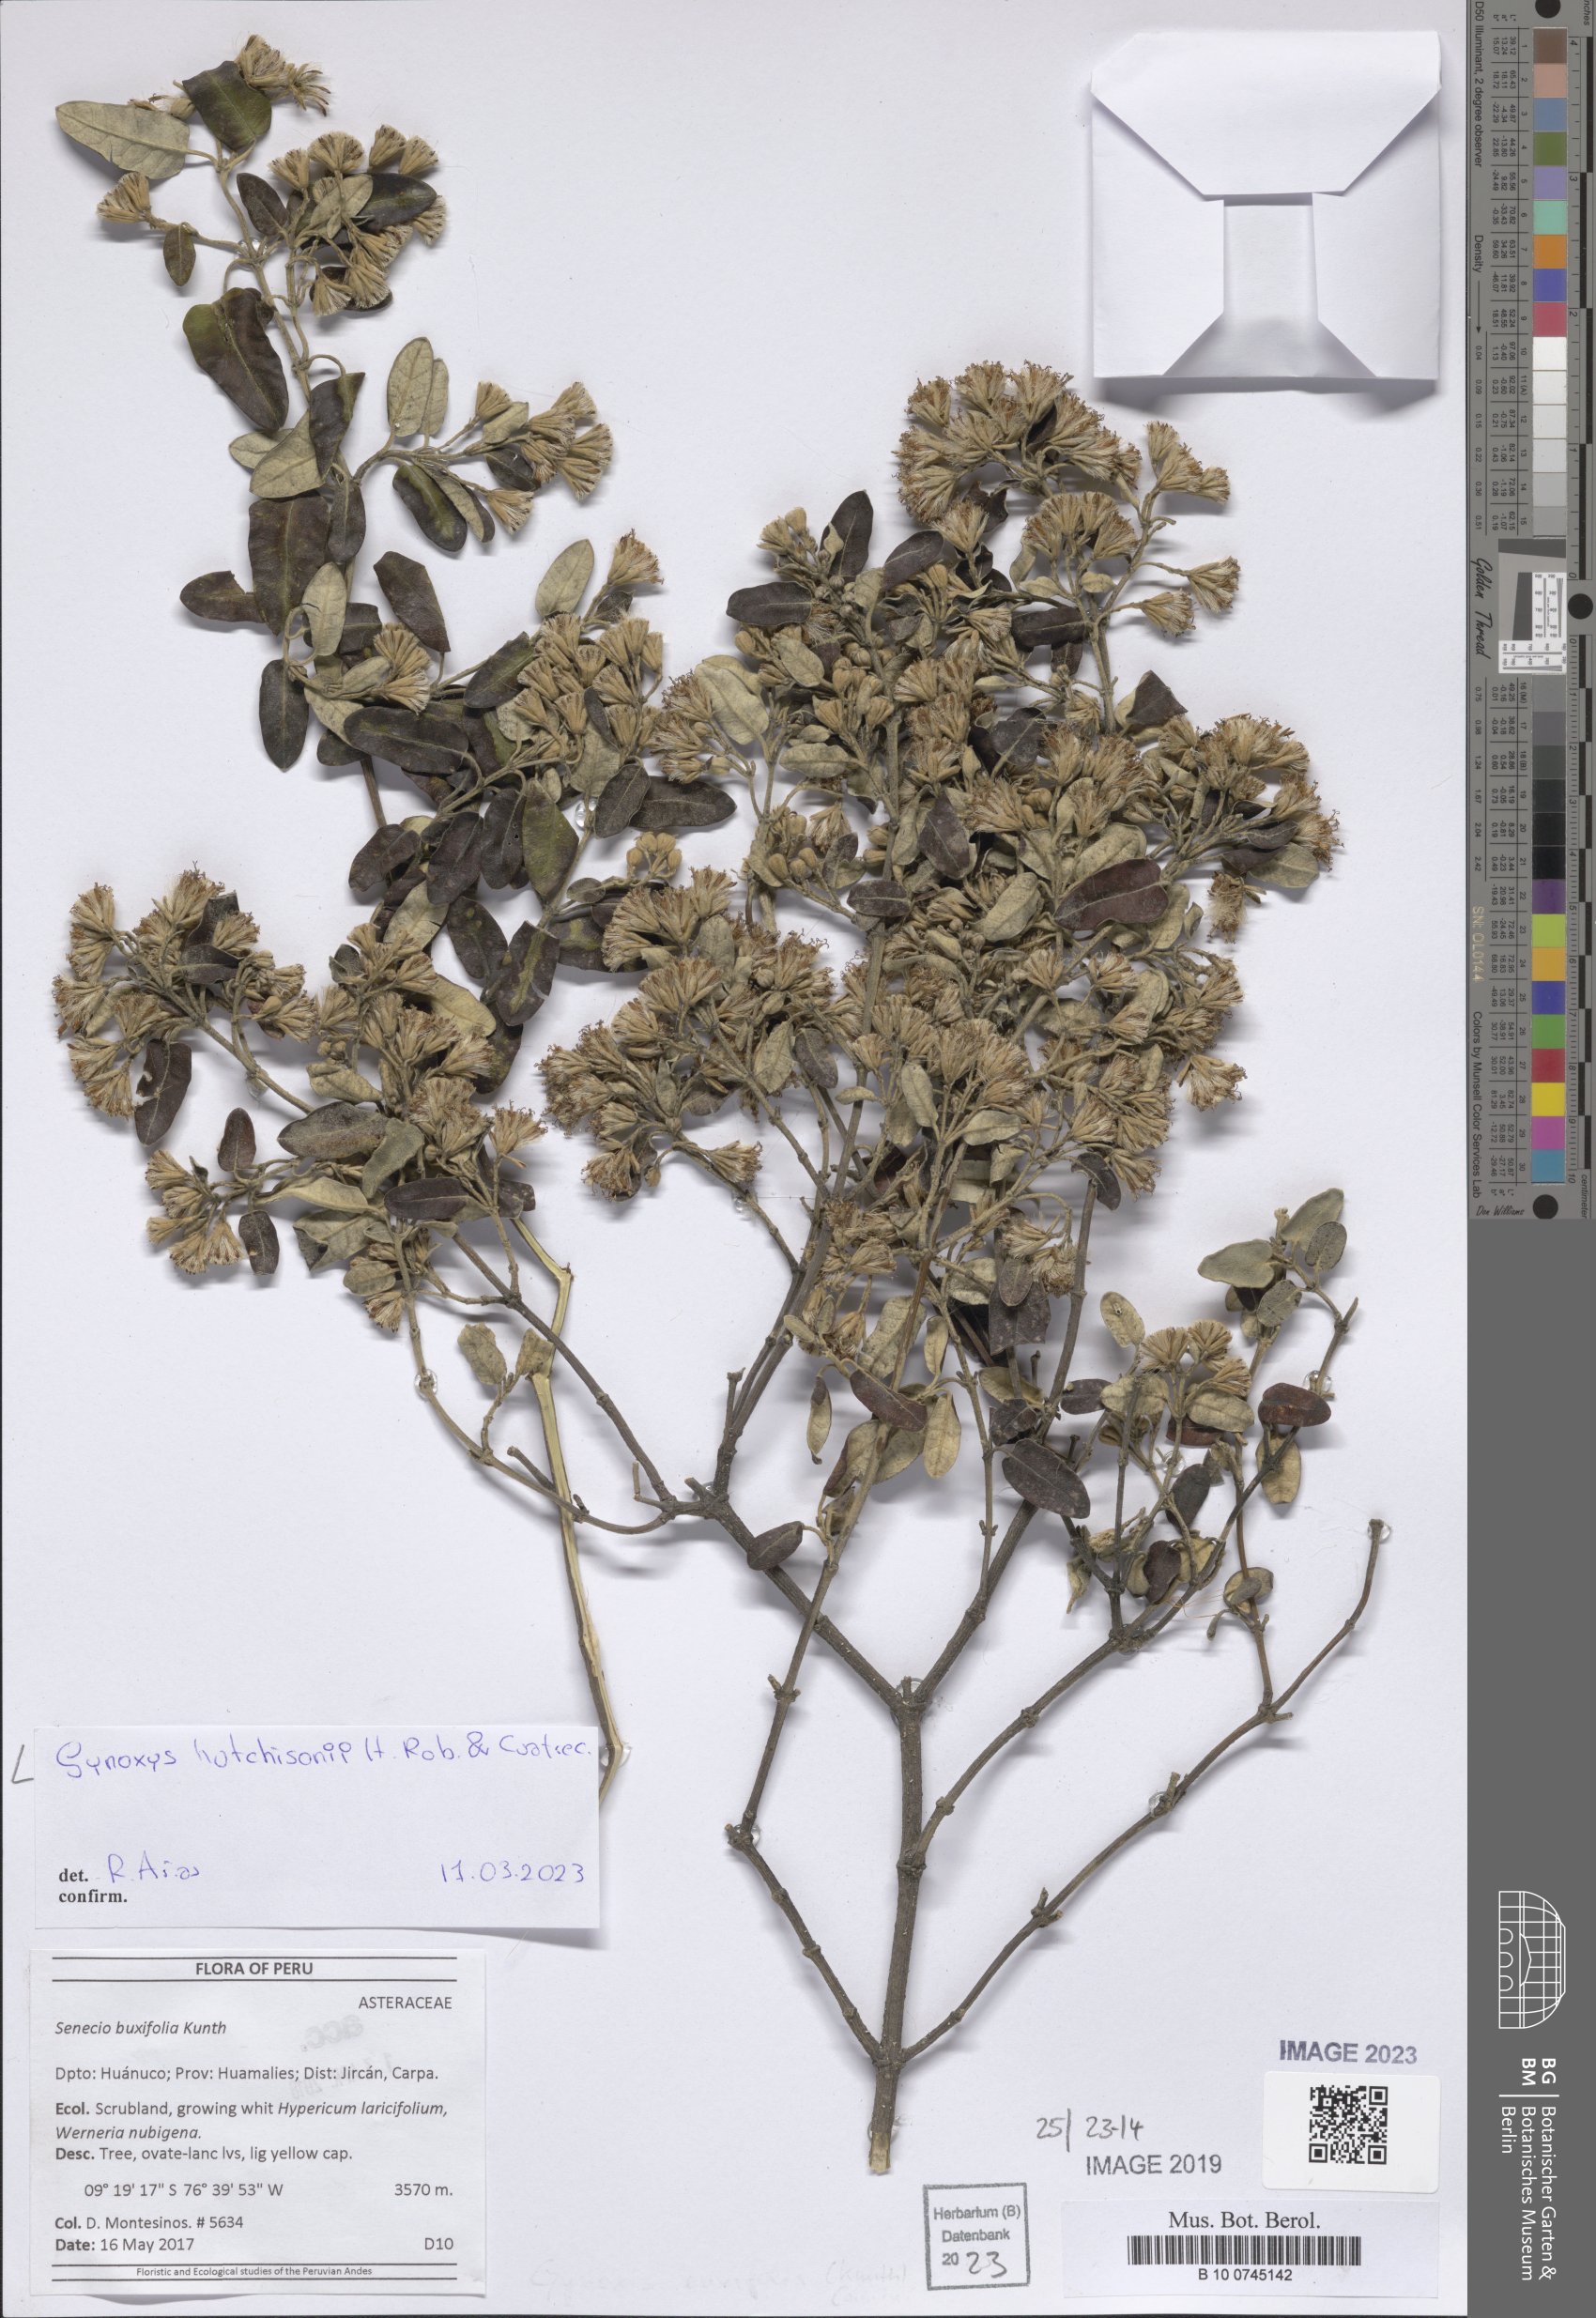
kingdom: Plantae
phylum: Tracheophyta
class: Magnoliopsida
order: Asterales
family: Asteraceae
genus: Gynoxys
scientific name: Gynoxys hutchisonii
